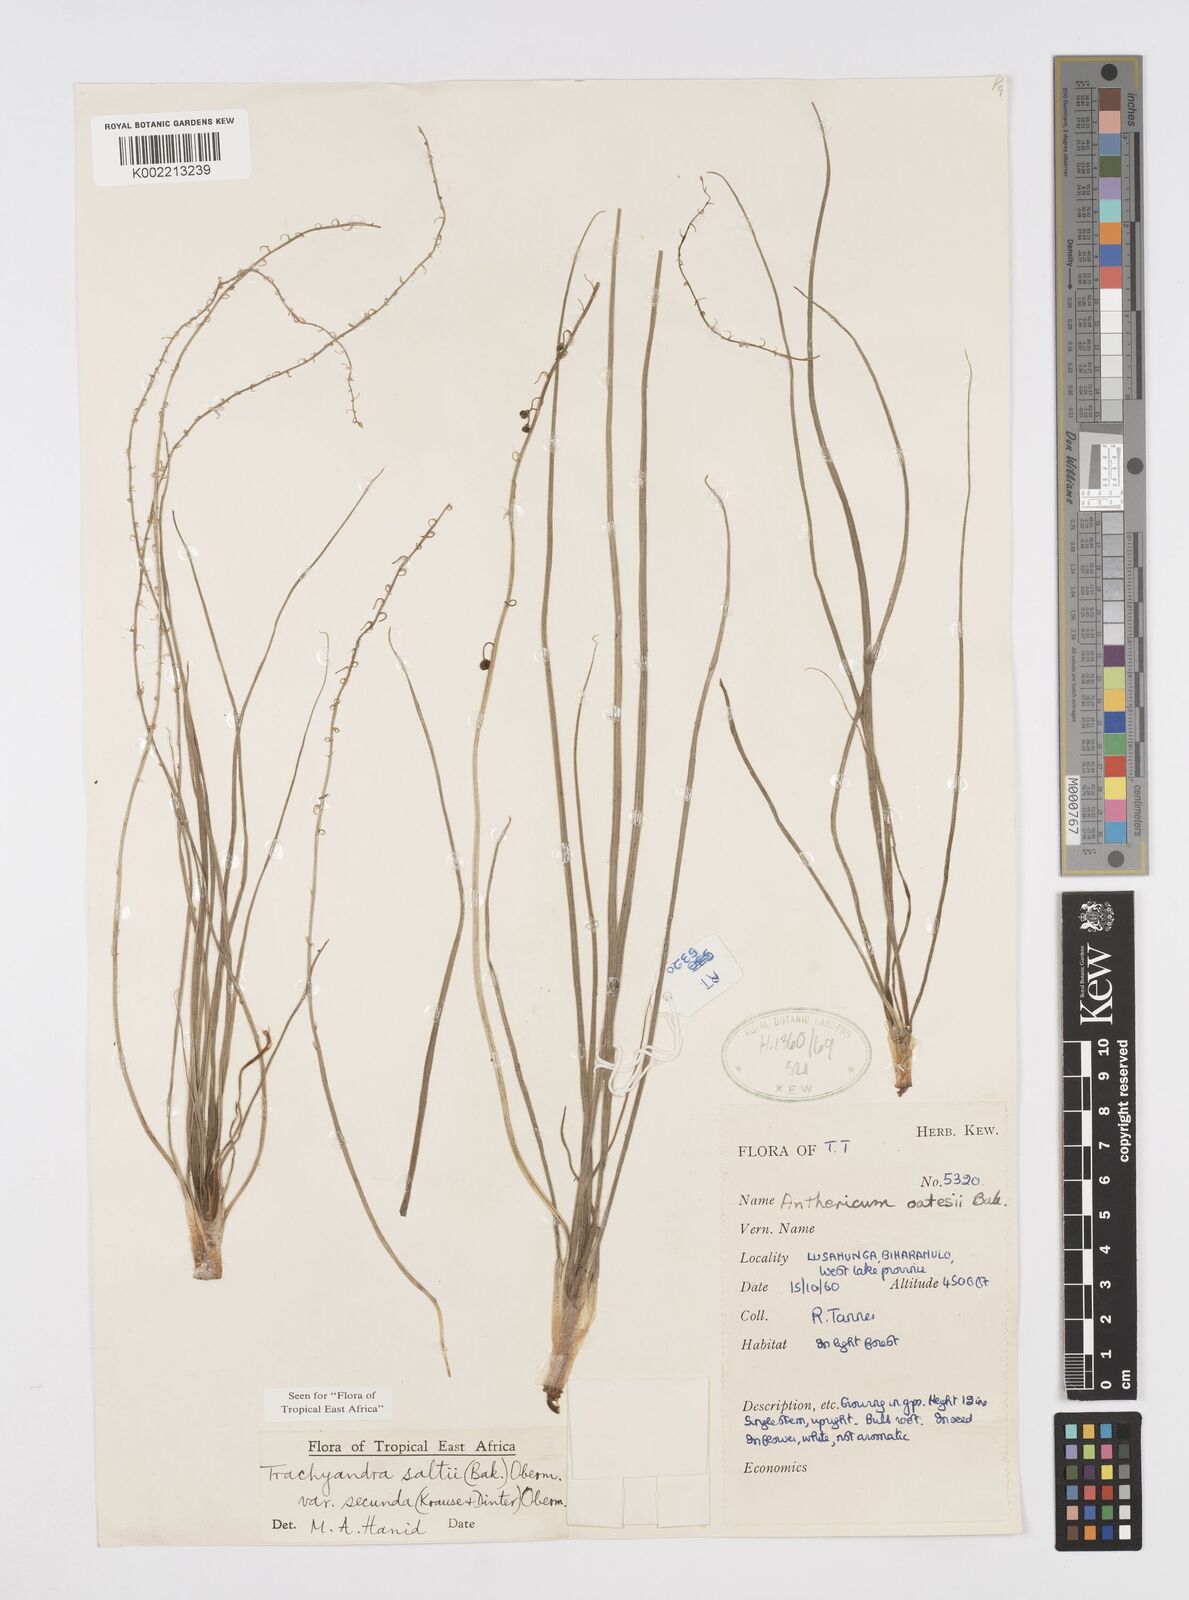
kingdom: Plantae
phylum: Tracheophyta
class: Liliopsida
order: Asparagales
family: Asphodelaceae
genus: Trachyandra
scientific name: Trachyandra saltii
